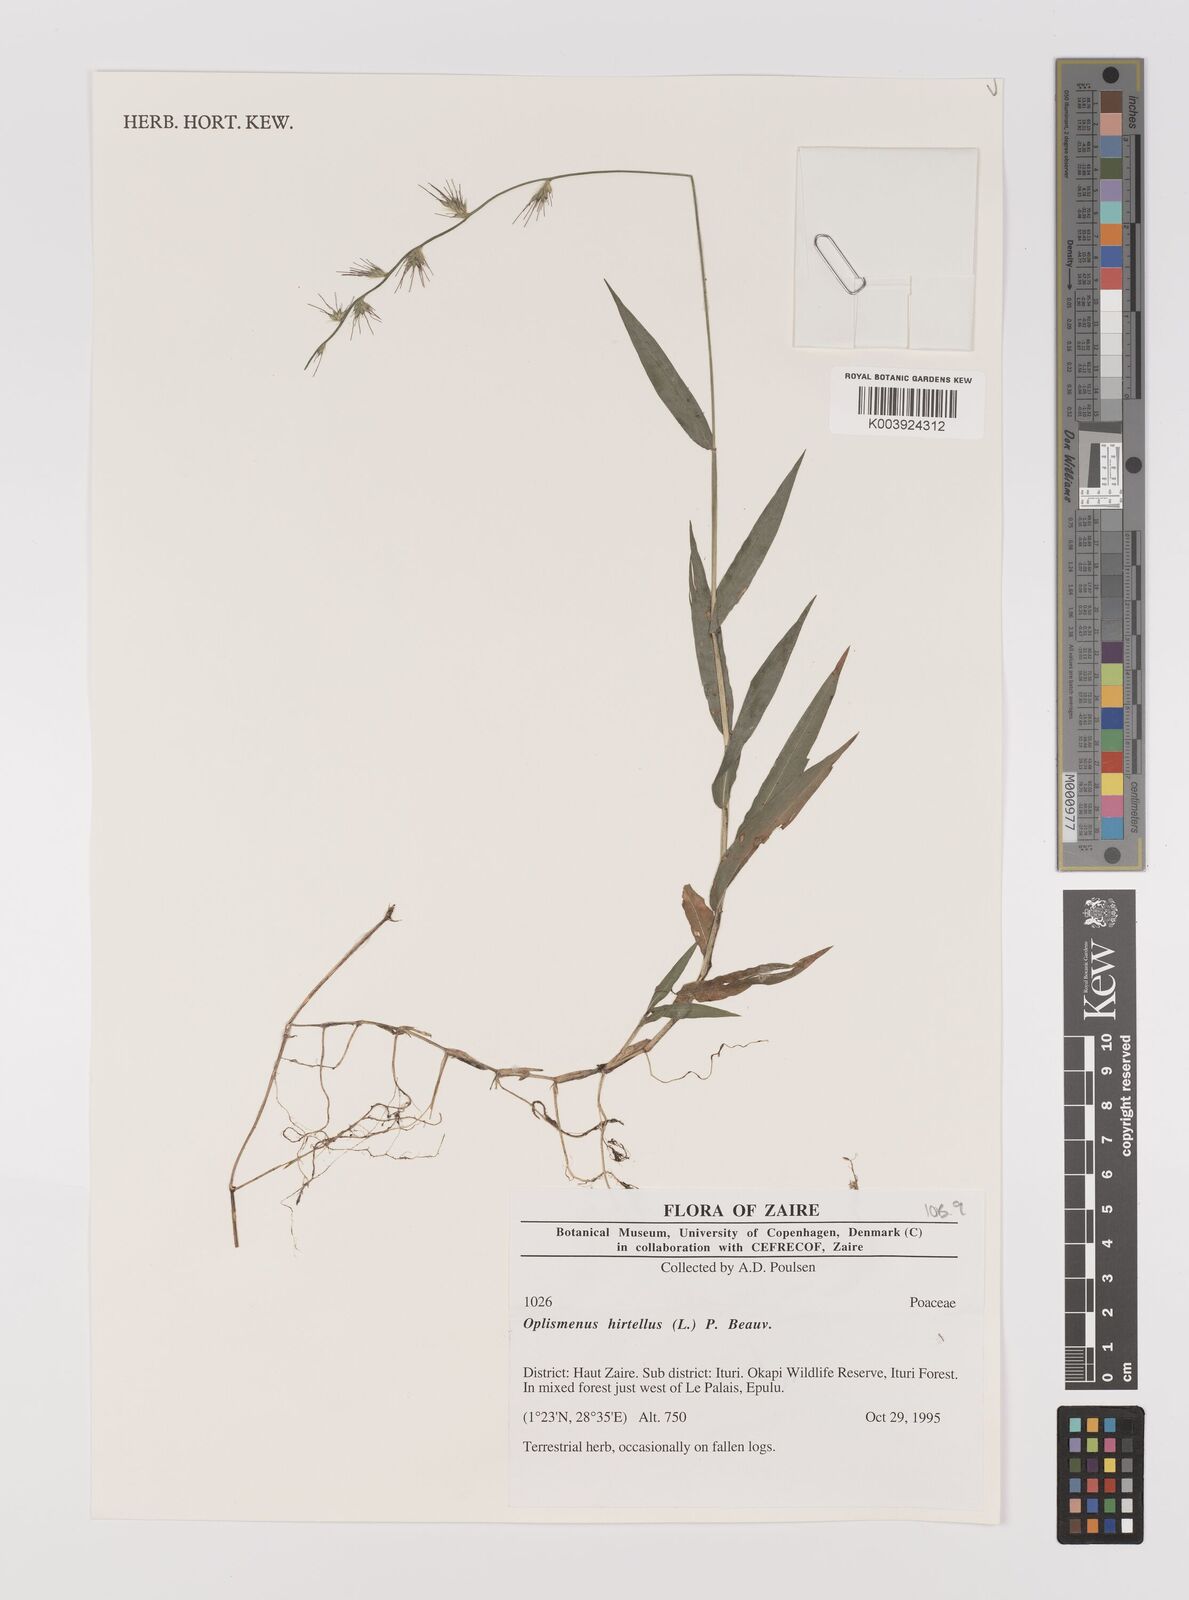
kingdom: Plantae
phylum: Tracheophyta
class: Liliopsida
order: Poales
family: Poaceae
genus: Oplismenus
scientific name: Oplismenus hirtellus
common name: Basketgrass
